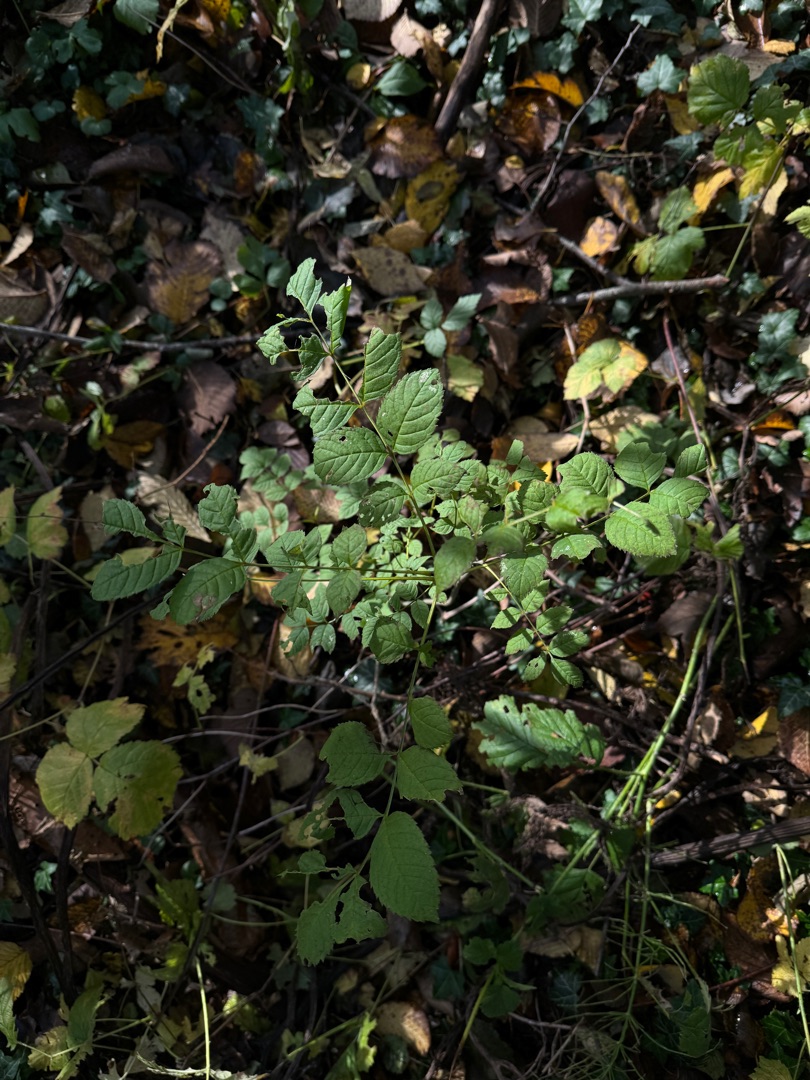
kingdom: Plantae
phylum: Tracheophyta
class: Magnoliopsida
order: Lamiales
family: Oleaceae
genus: Fraxinus
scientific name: Fraxinus excelsior
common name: Ask
